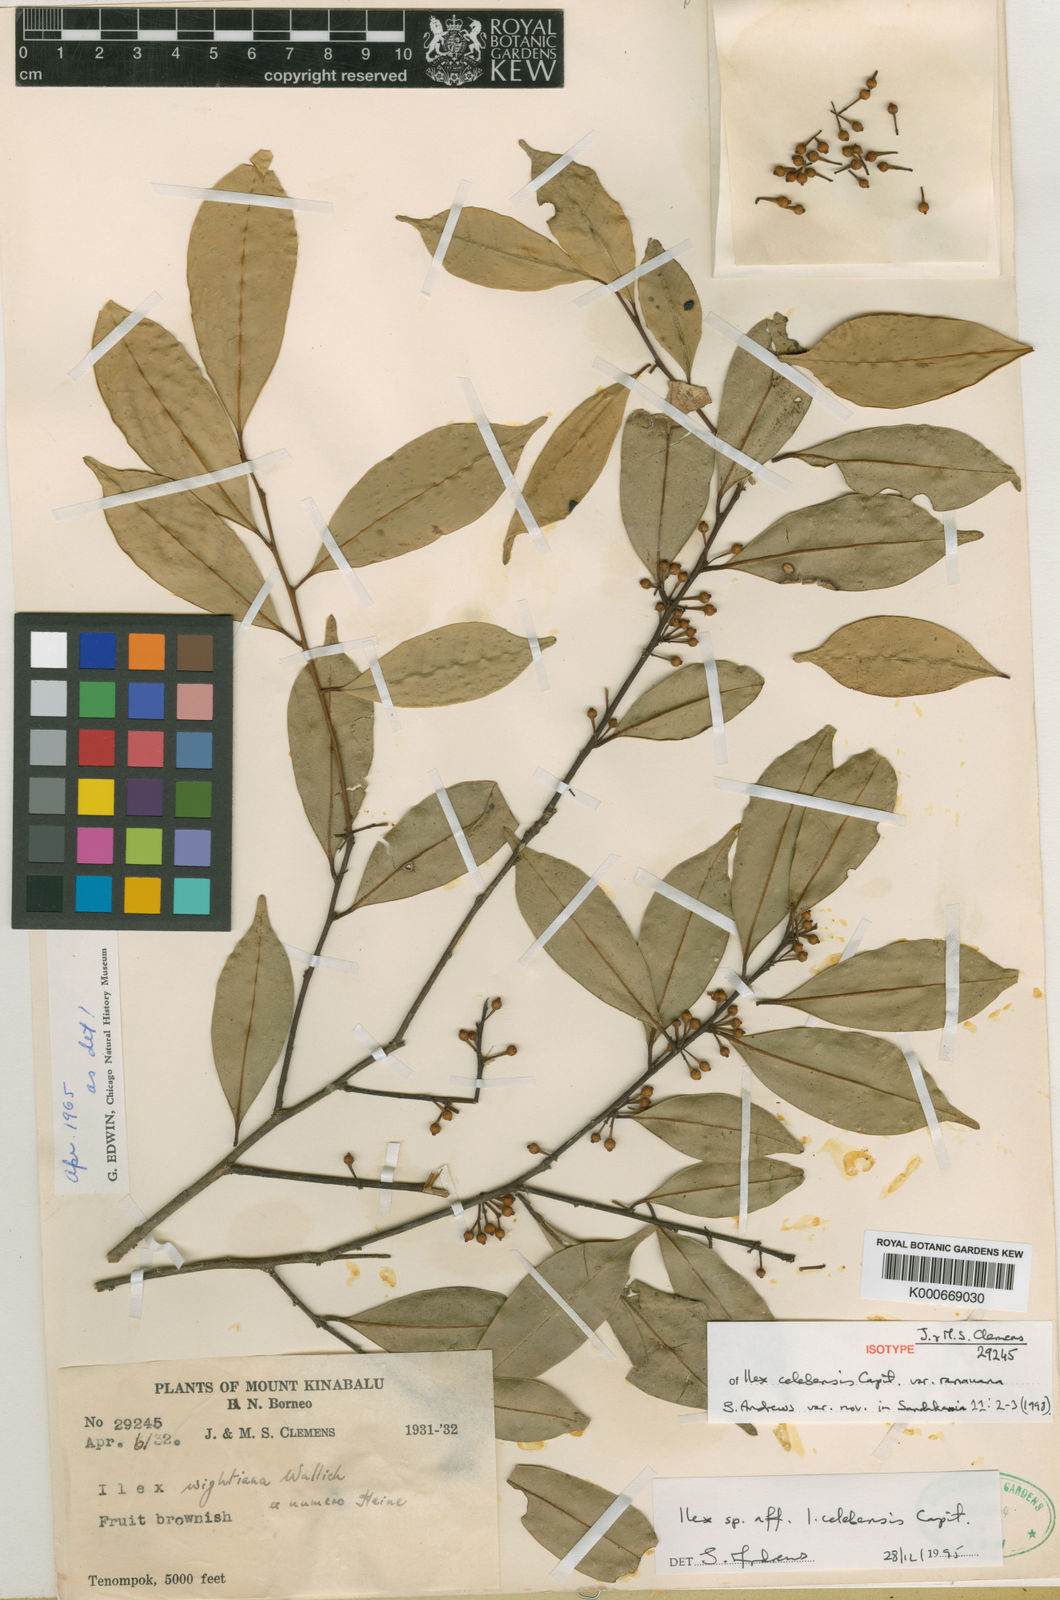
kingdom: Plantae
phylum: Tracheophyta
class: Magnoliopsida
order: Aquifoliales
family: Aquifoliaceae
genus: Ilex
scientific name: Ilex celebensis
